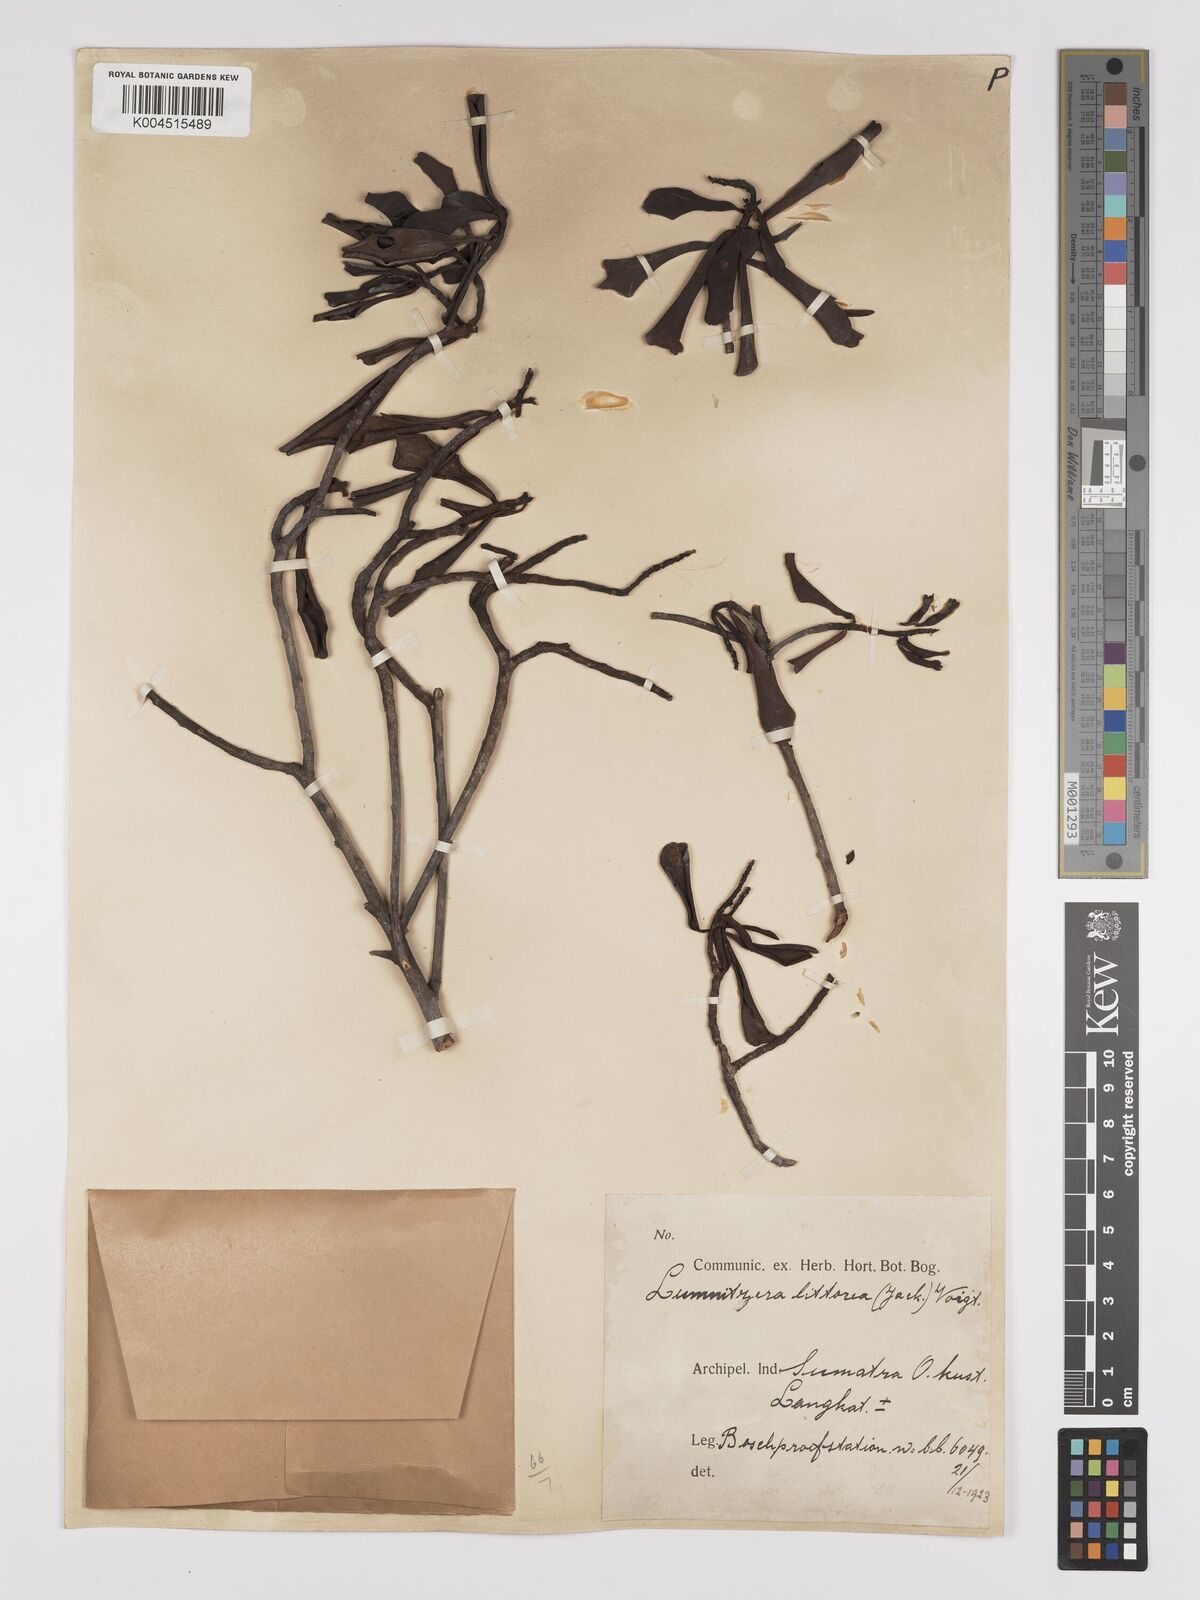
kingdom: Plantae
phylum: Tracheophyta
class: Magnoliopsida
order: Myrtales
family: Combretaceae
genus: Lumnitzera
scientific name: Lumnitzera littorea
